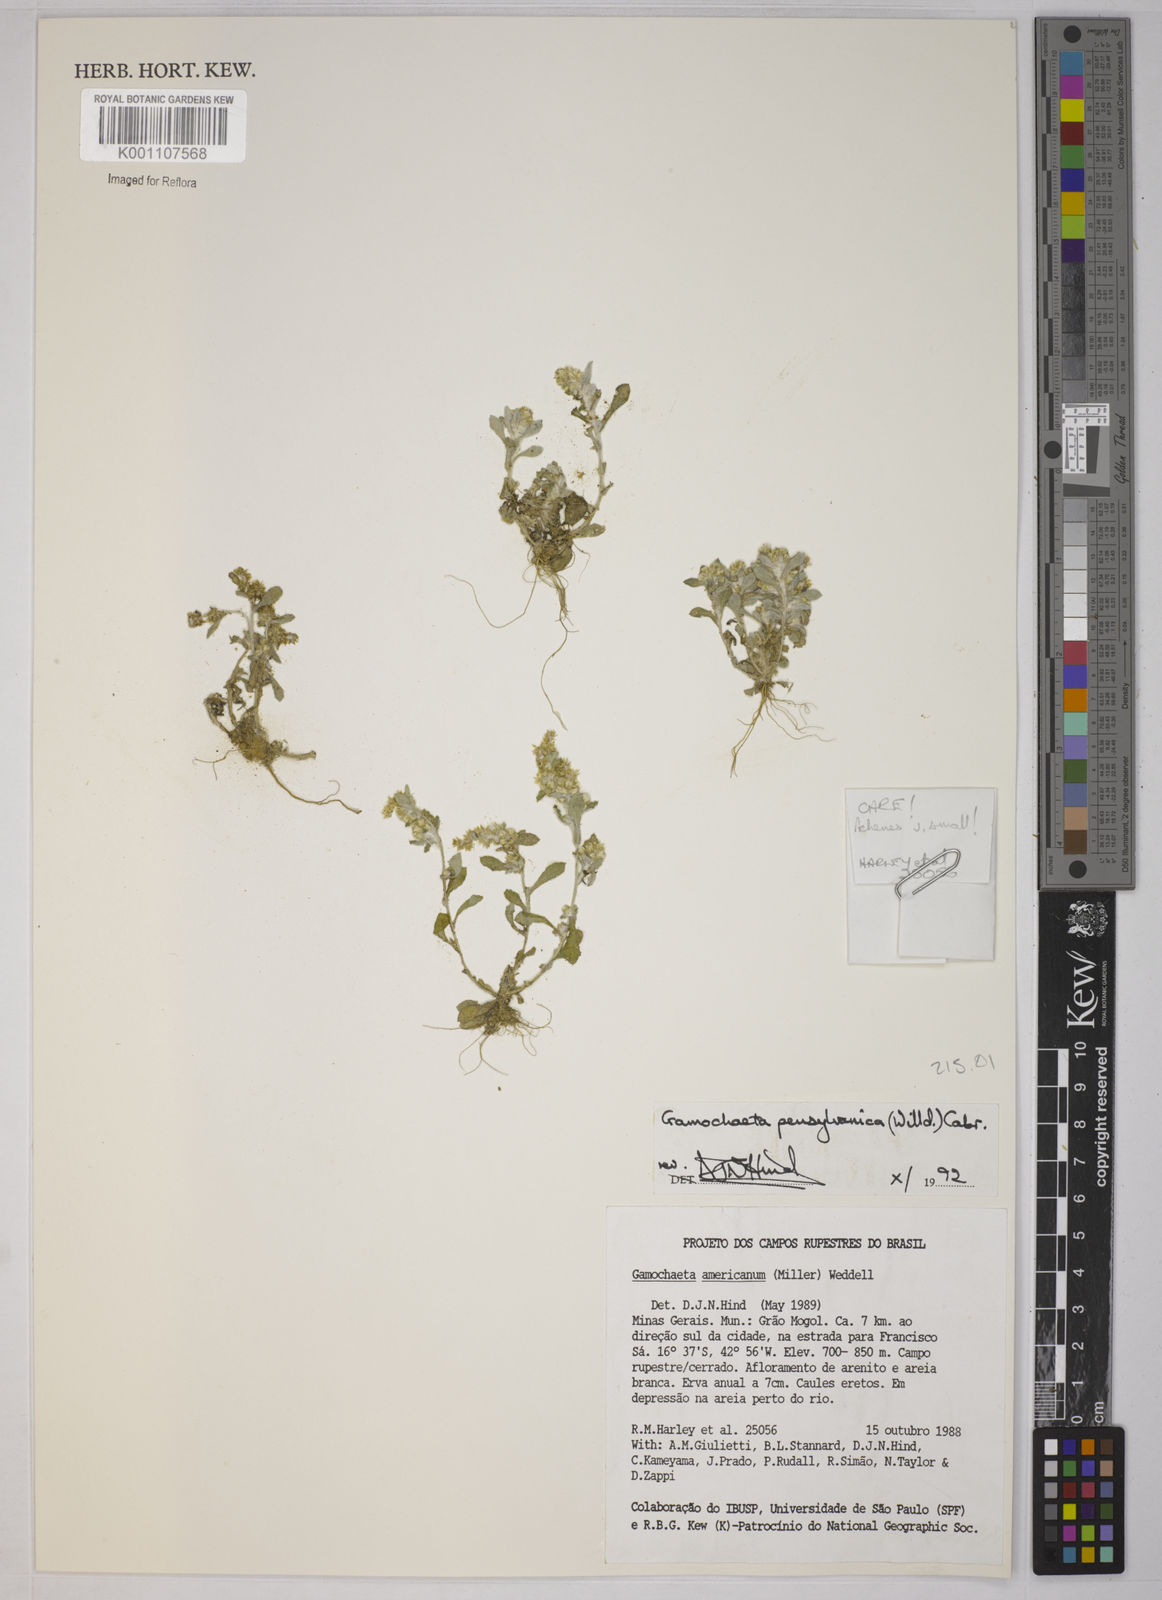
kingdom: Plantae
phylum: Tracheophyta
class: Magnoliopsida
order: Asterales
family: Asteraceae
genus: Gamochaeta
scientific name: Gamochaeta pensylvanica
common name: Pennsylvania everlasting
